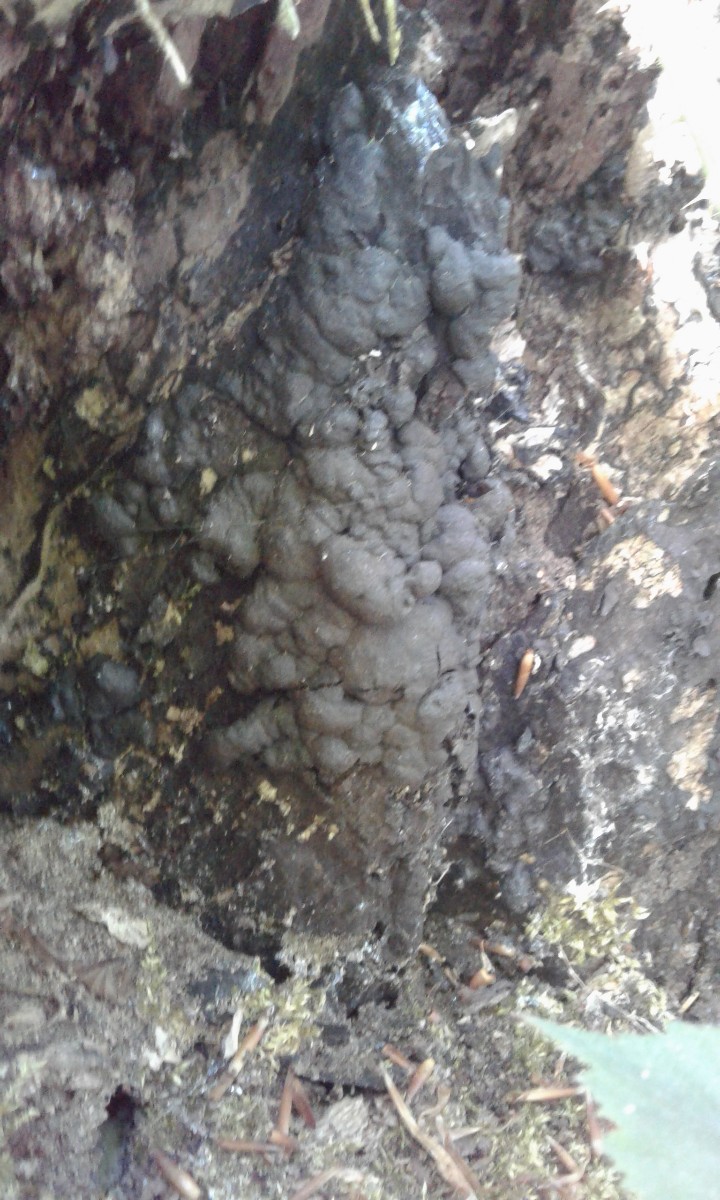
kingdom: Fungi
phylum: Ascomycota
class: Sordariomycetes
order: Xylariales
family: Xylariaceae
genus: Kretzschmaria
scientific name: Kretzschmaria deusta
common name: stor kulsvamp
